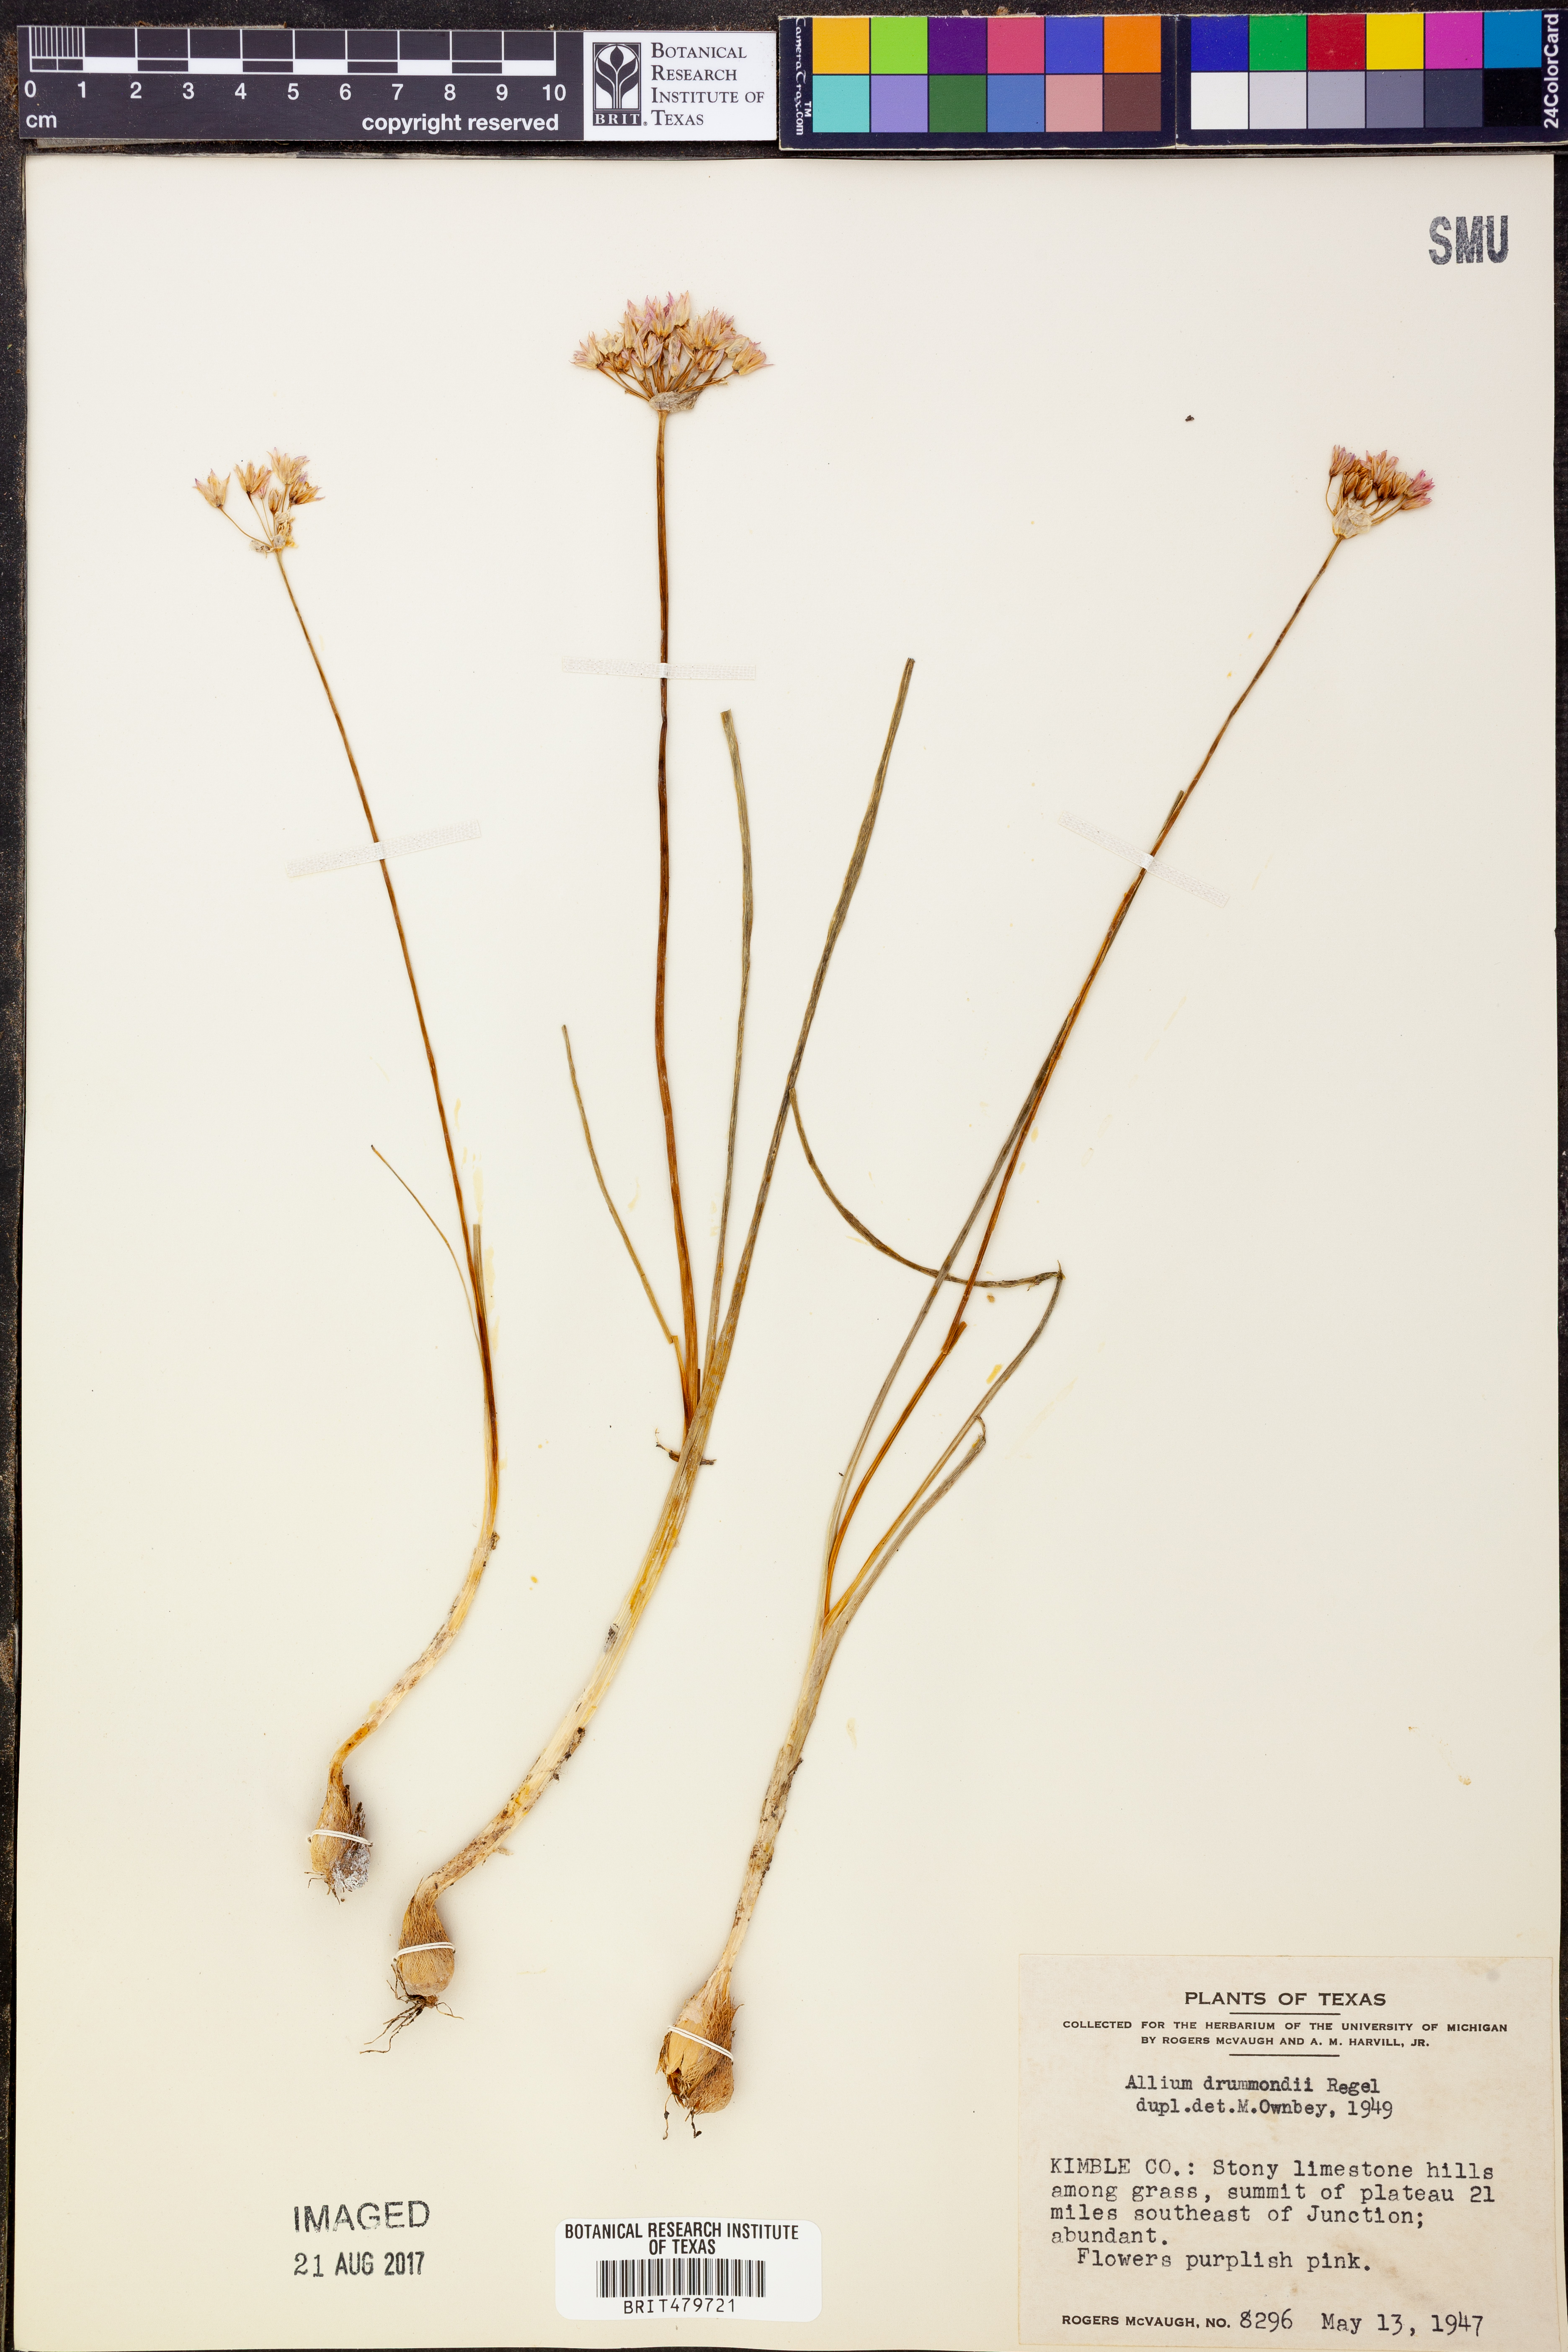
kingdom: Plantae
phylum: Tracheophyta
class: Liliopsida
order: Asparagales
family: Amaryllidaceae
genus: Allium
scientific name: Allium drummondii
